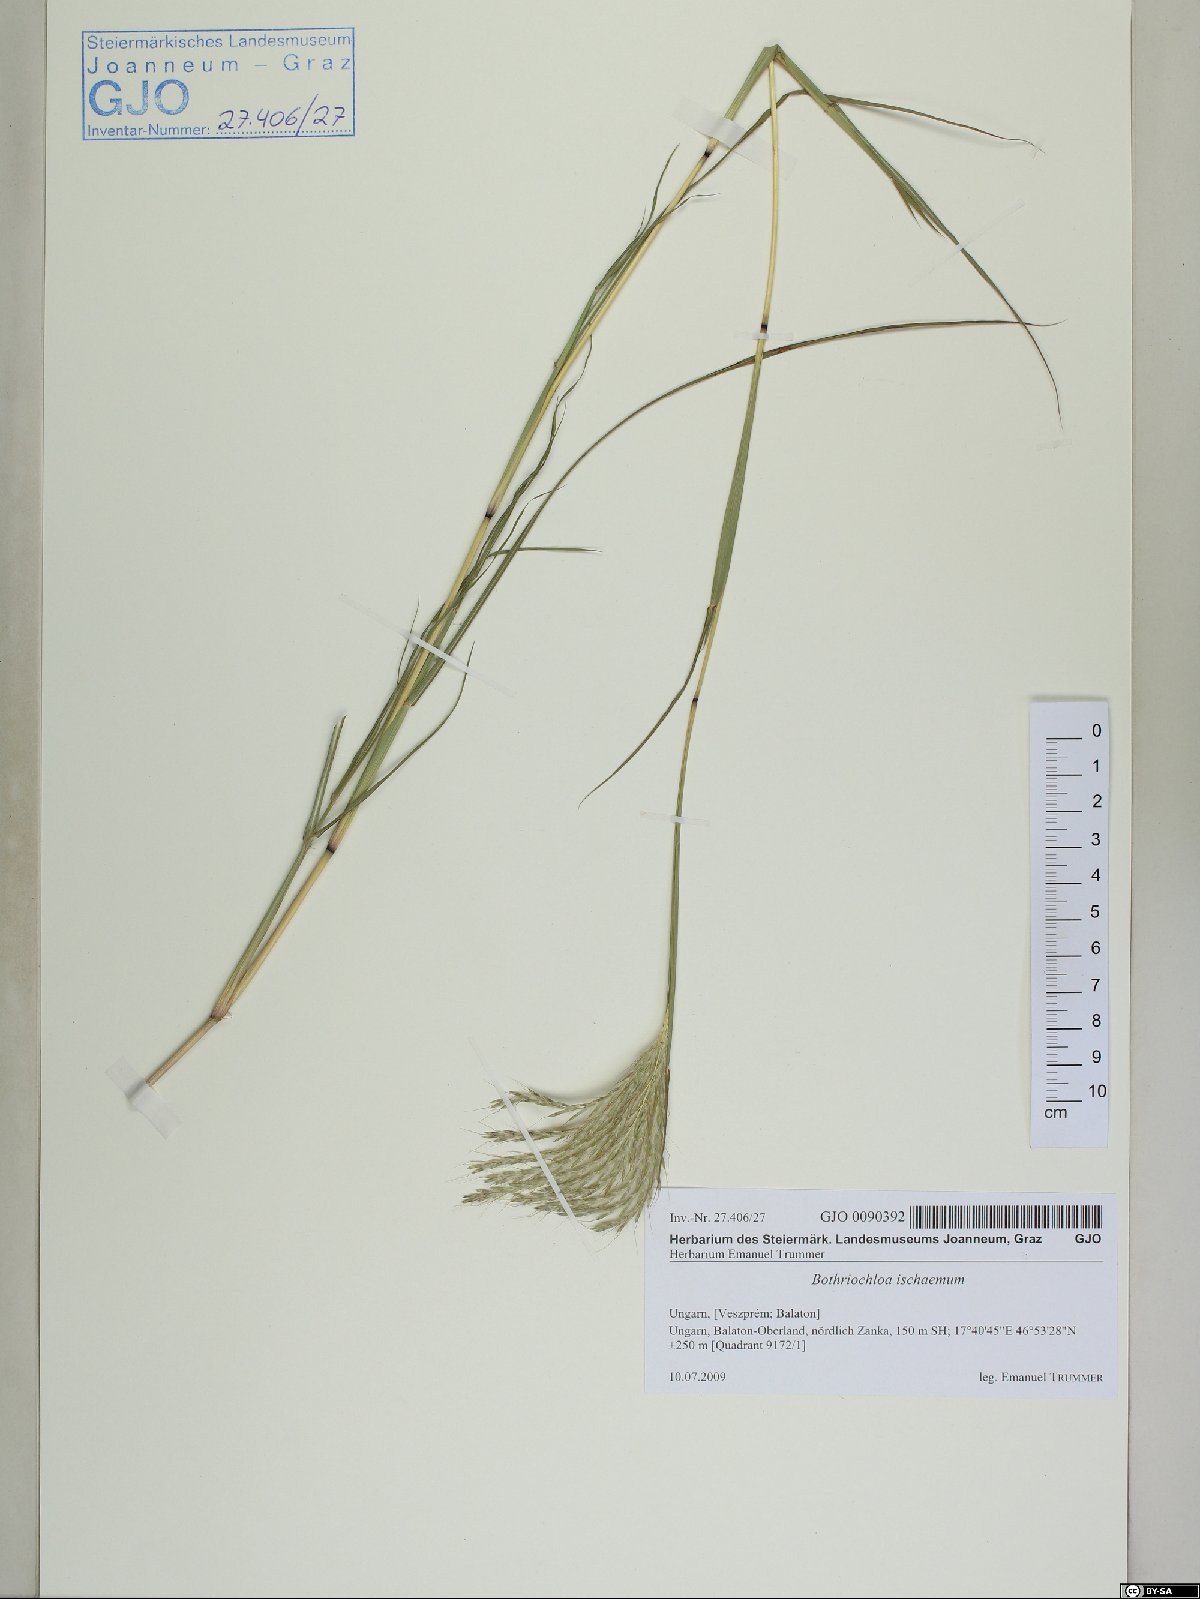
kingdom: Plantae
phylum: Tracheophyta
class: Liliopsida
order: Poales
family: Poaceae
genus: Bothriochloa
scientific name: Bothriochloa ischaemum
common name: Yellow bluestem
